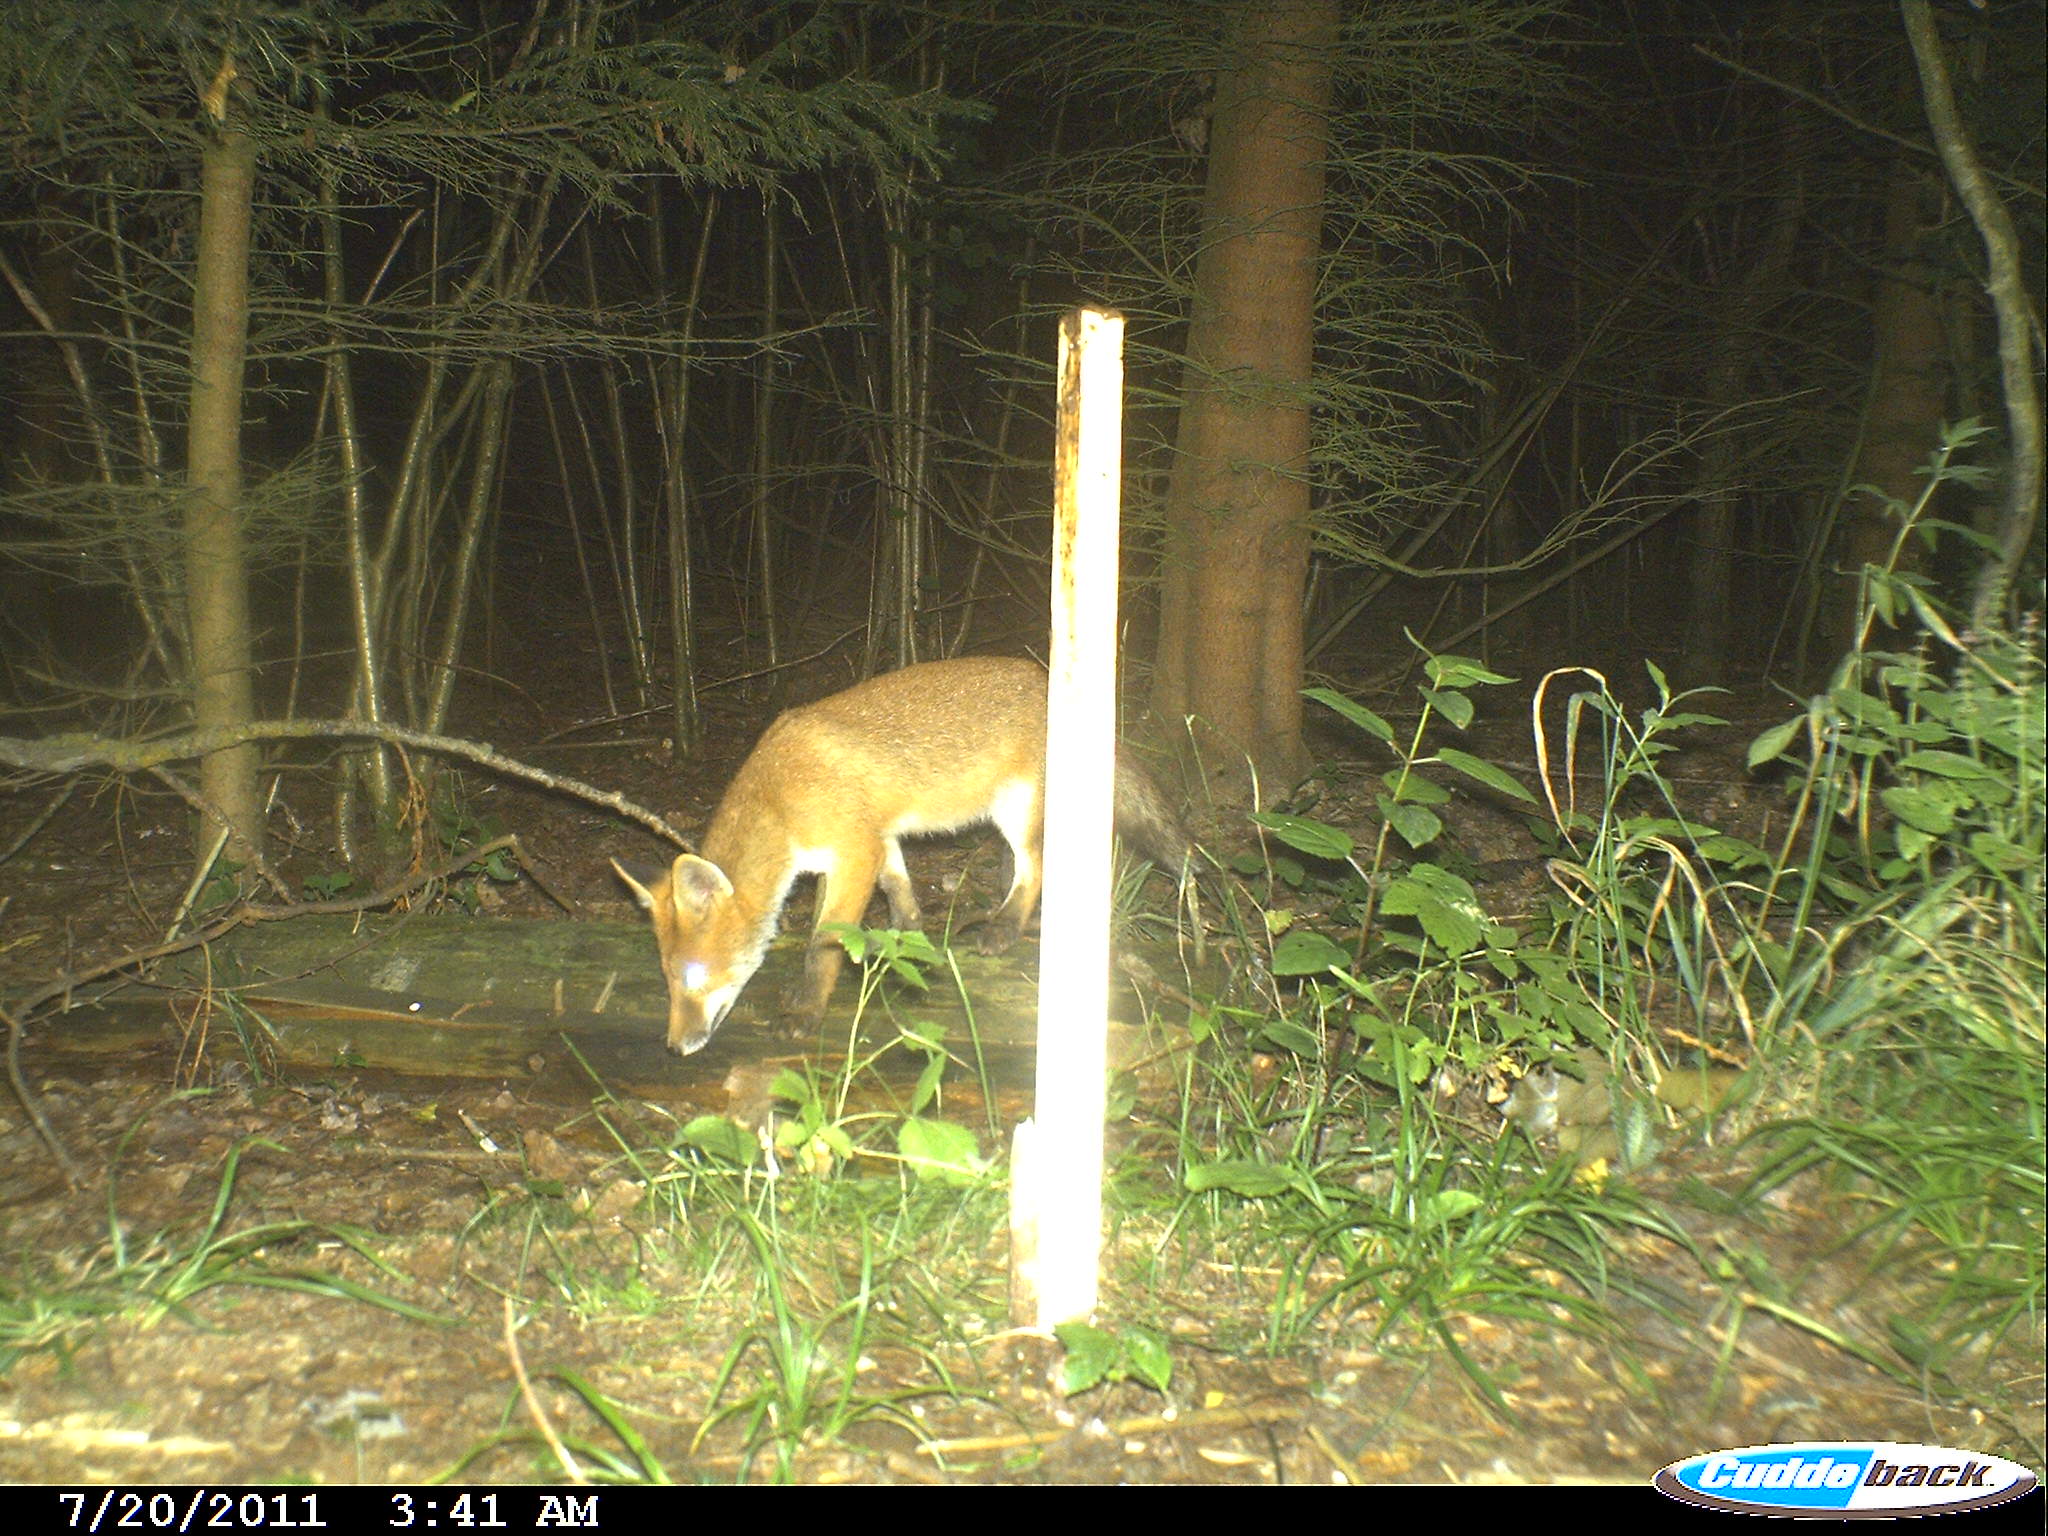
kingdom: Animalia
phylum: Chordata
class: Mammalia
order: Carnivora
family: Canidae
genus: Vulpes
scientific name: Vulpes vulpes
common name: Red fox
